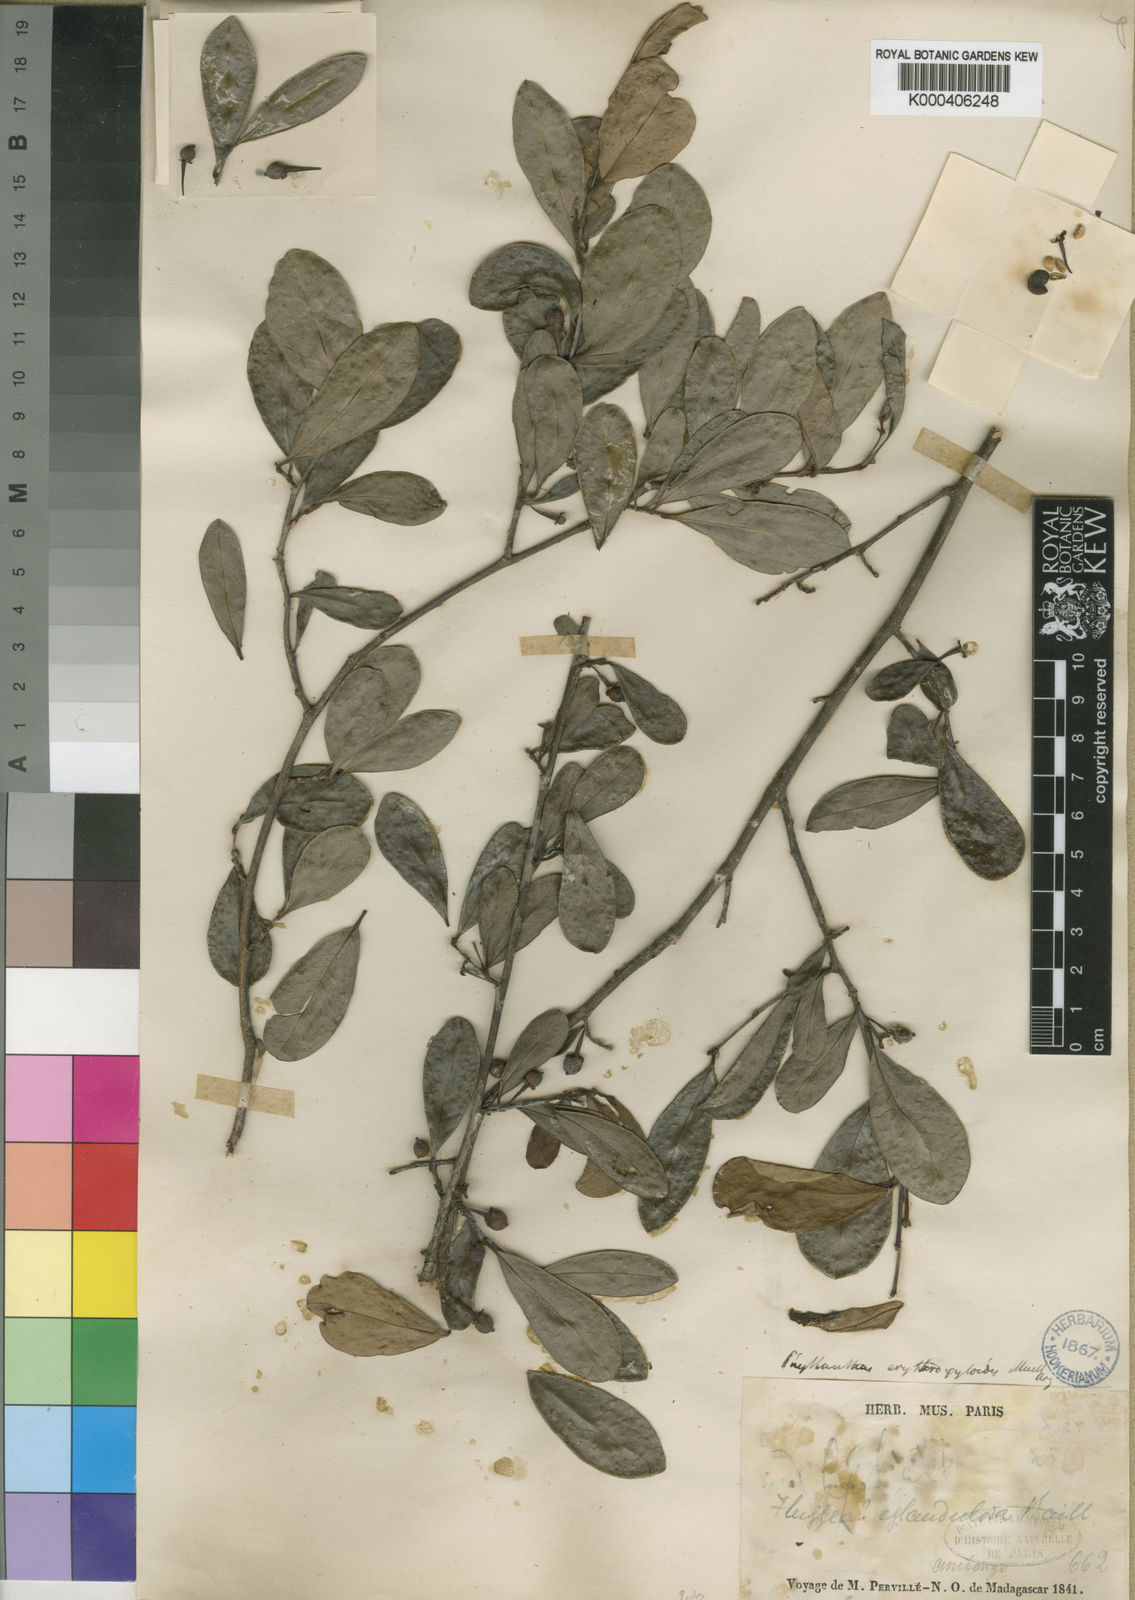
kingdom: Plantae
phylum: Tracheophyta
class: Magnoliopsida
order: Malpighiales
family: Phyllanthaceae
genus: Margaritaria
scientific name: Margaritaria anomala
